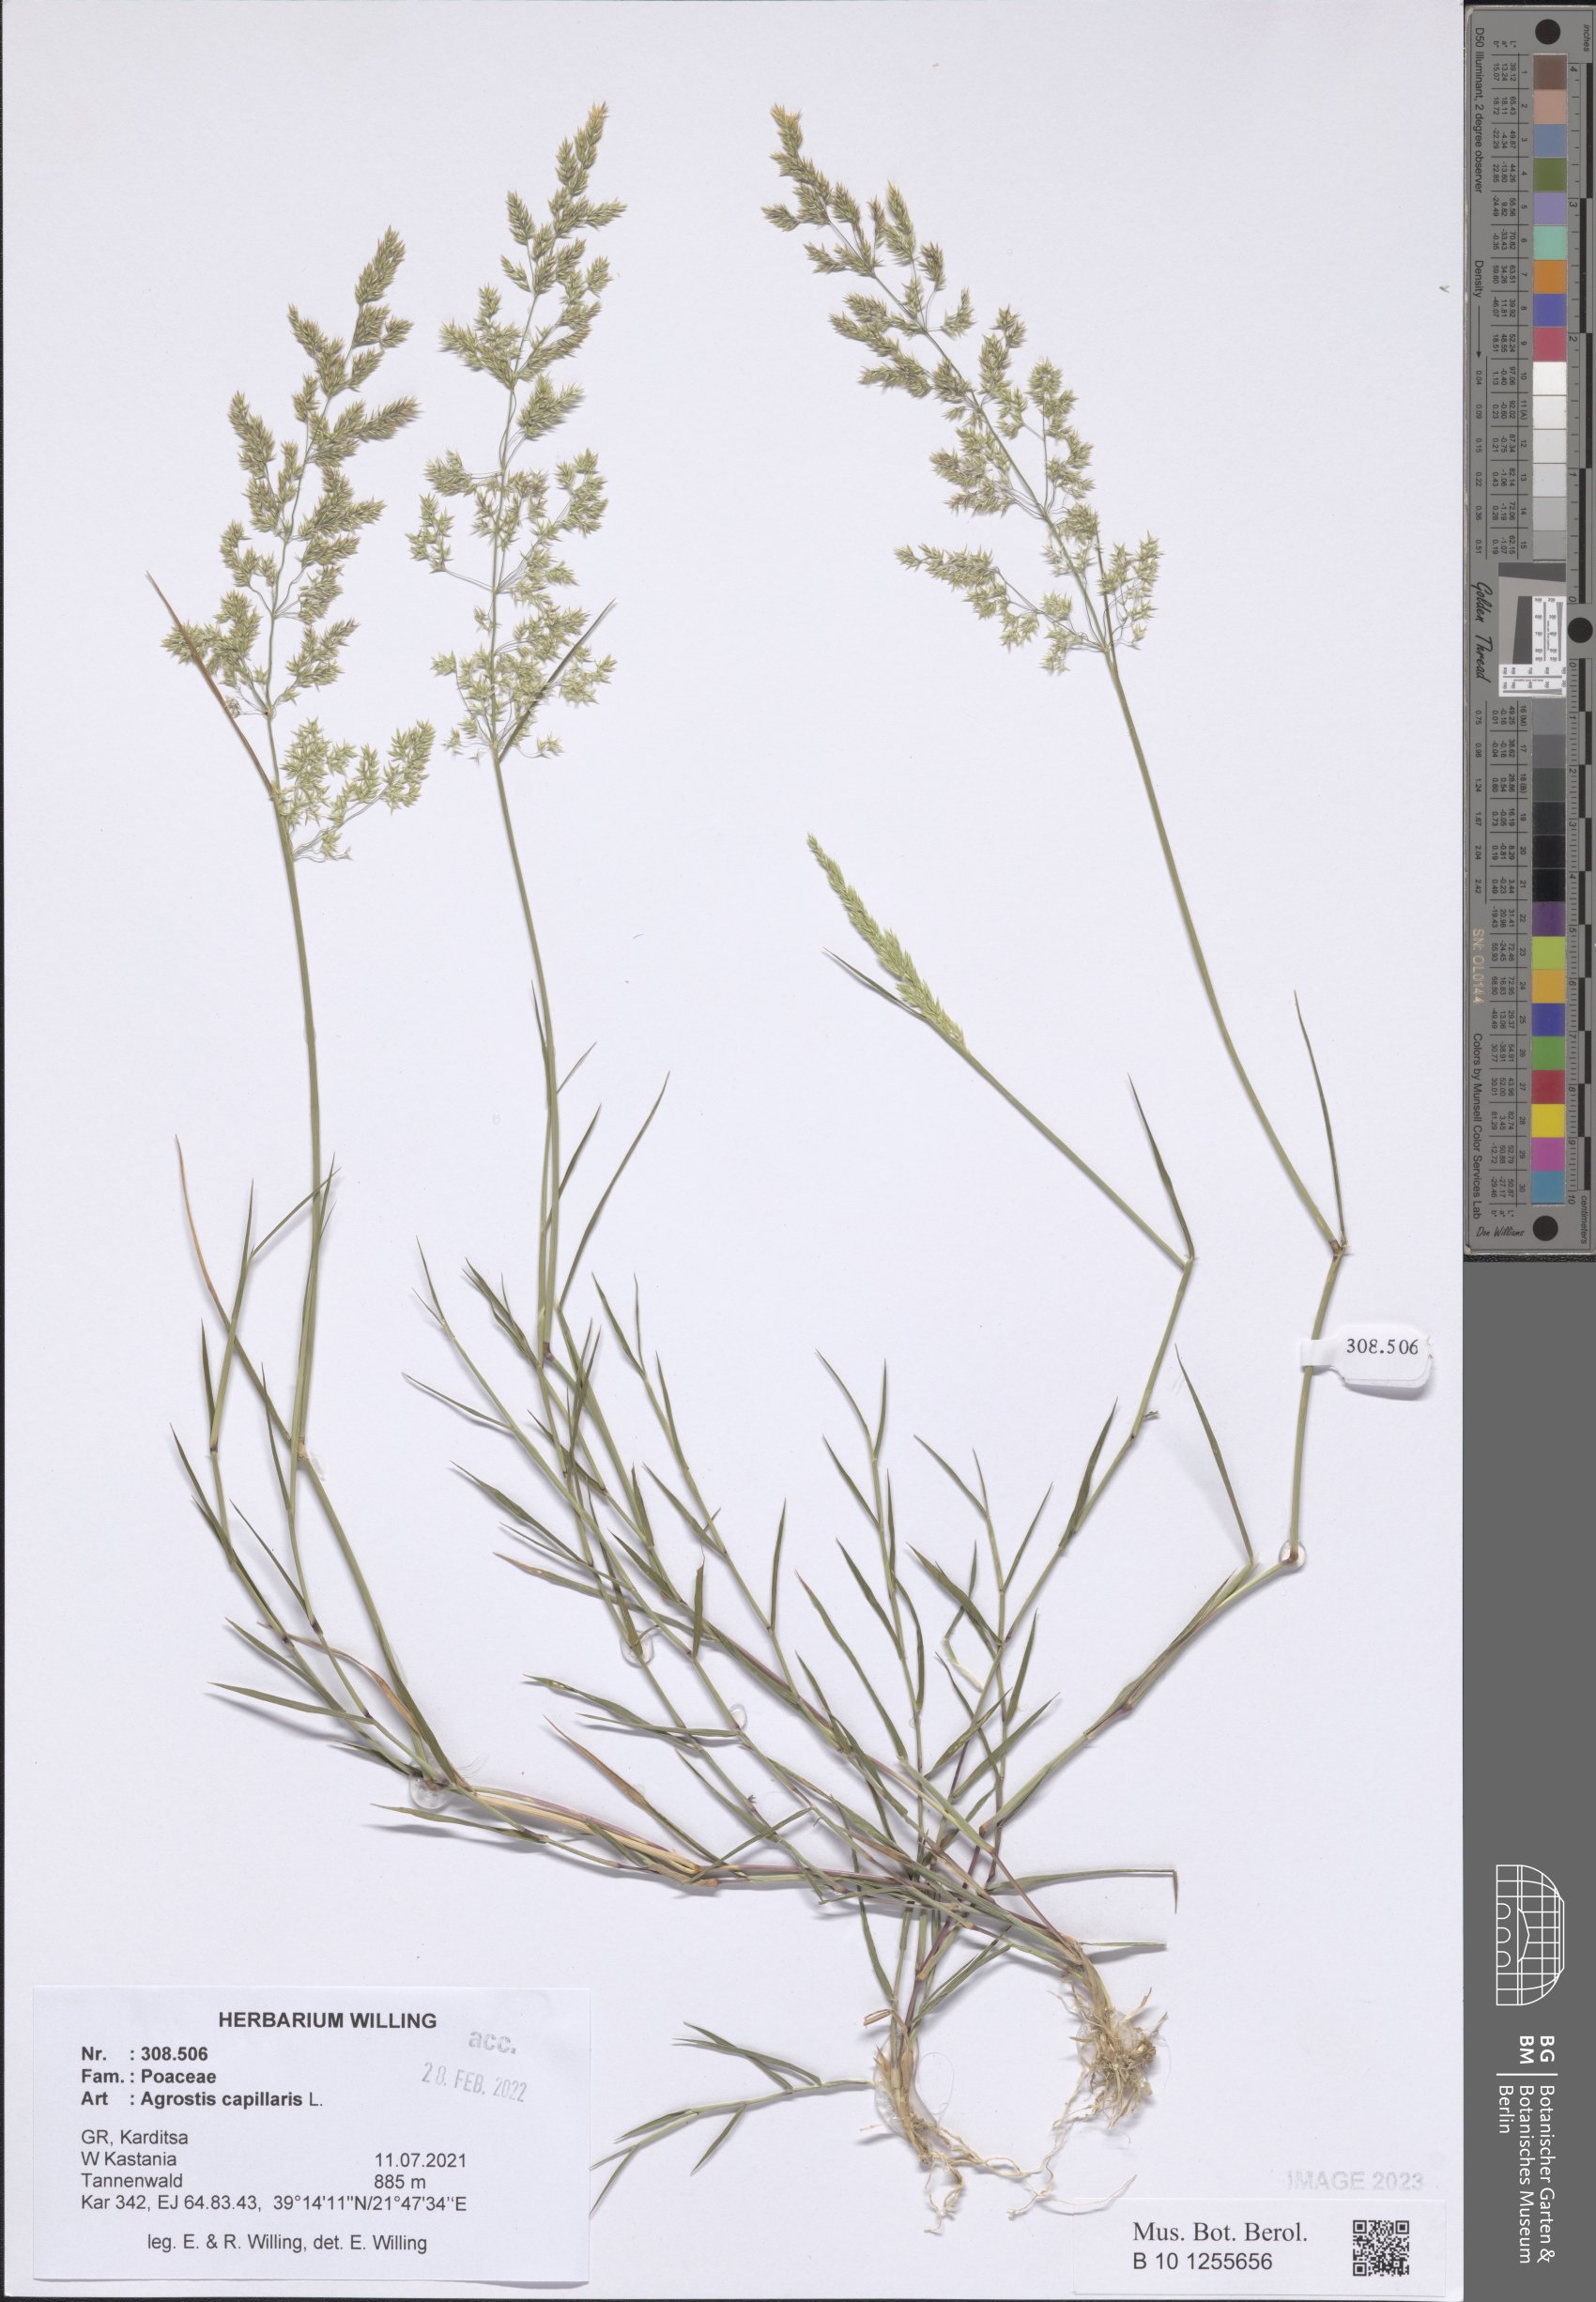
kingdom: Plantae
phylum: Tracheophyta
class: Liliopsida
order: Poales
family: Poaceae
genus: Agrostis
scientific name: Agrostis capillaris
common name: Colonial bentgrass
